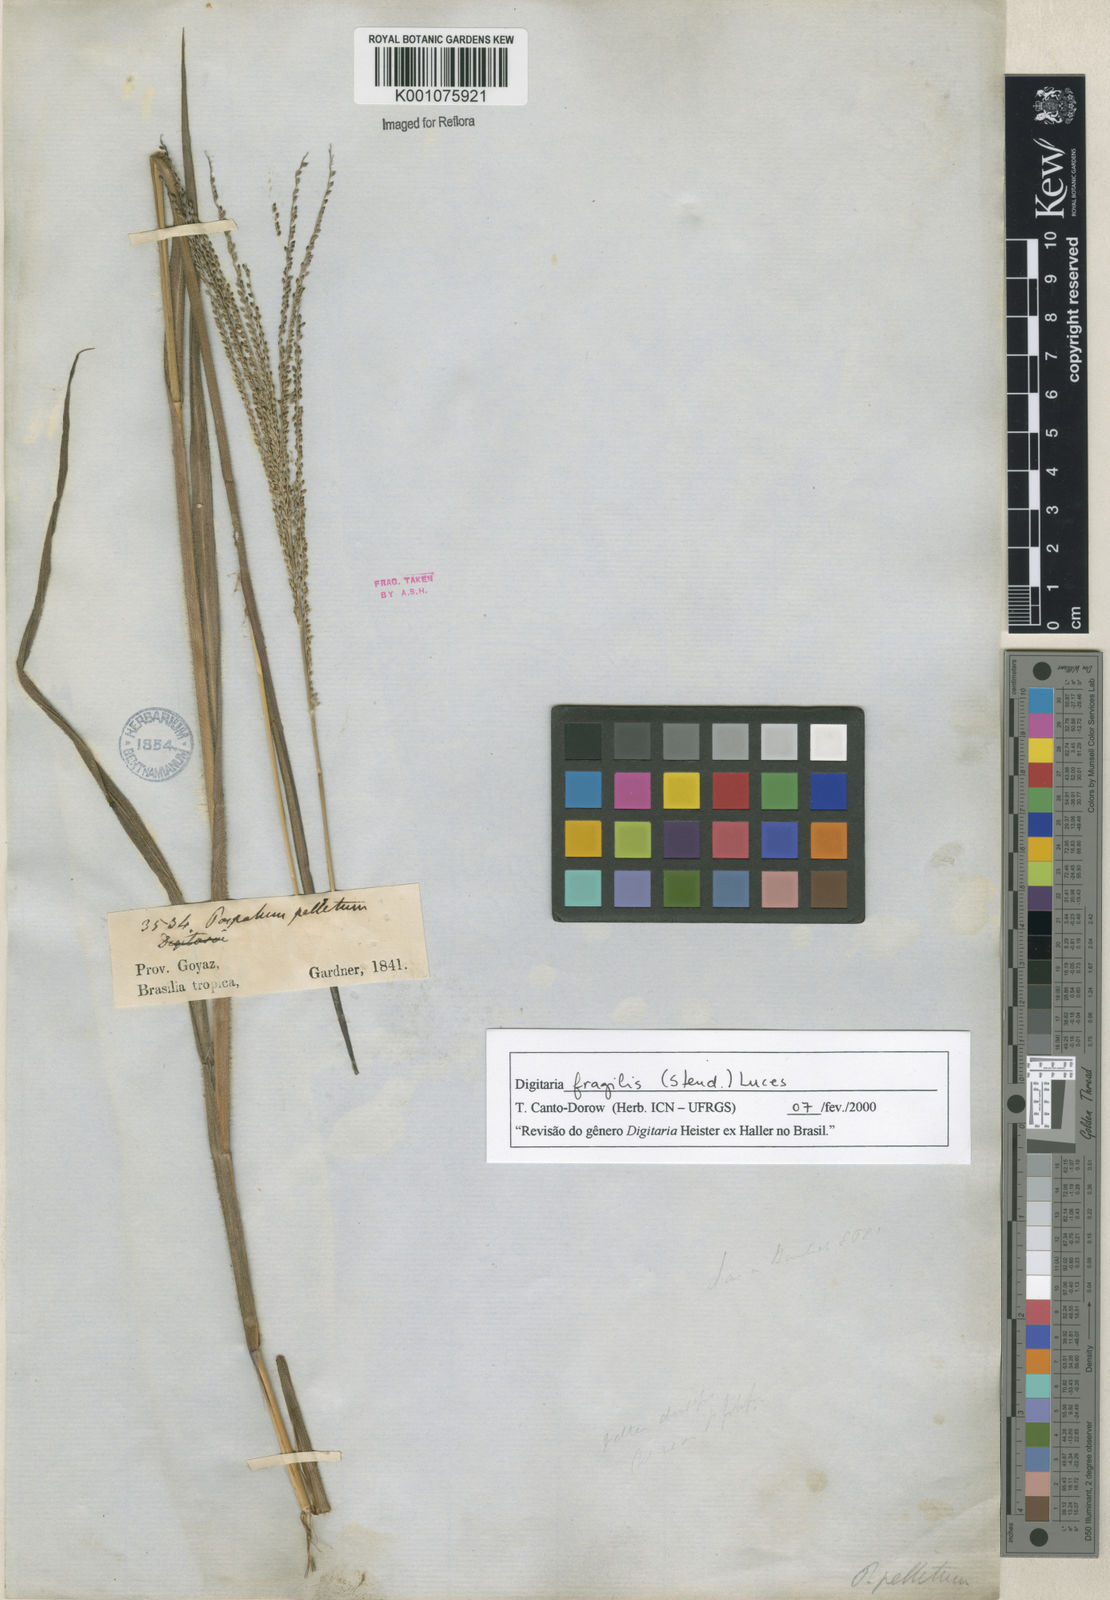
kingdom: Plantae
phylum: Tracheophyta
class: Liliopsida
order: Poales
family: Poaceae
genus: Digitaria
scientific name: Digitaria fragilis
